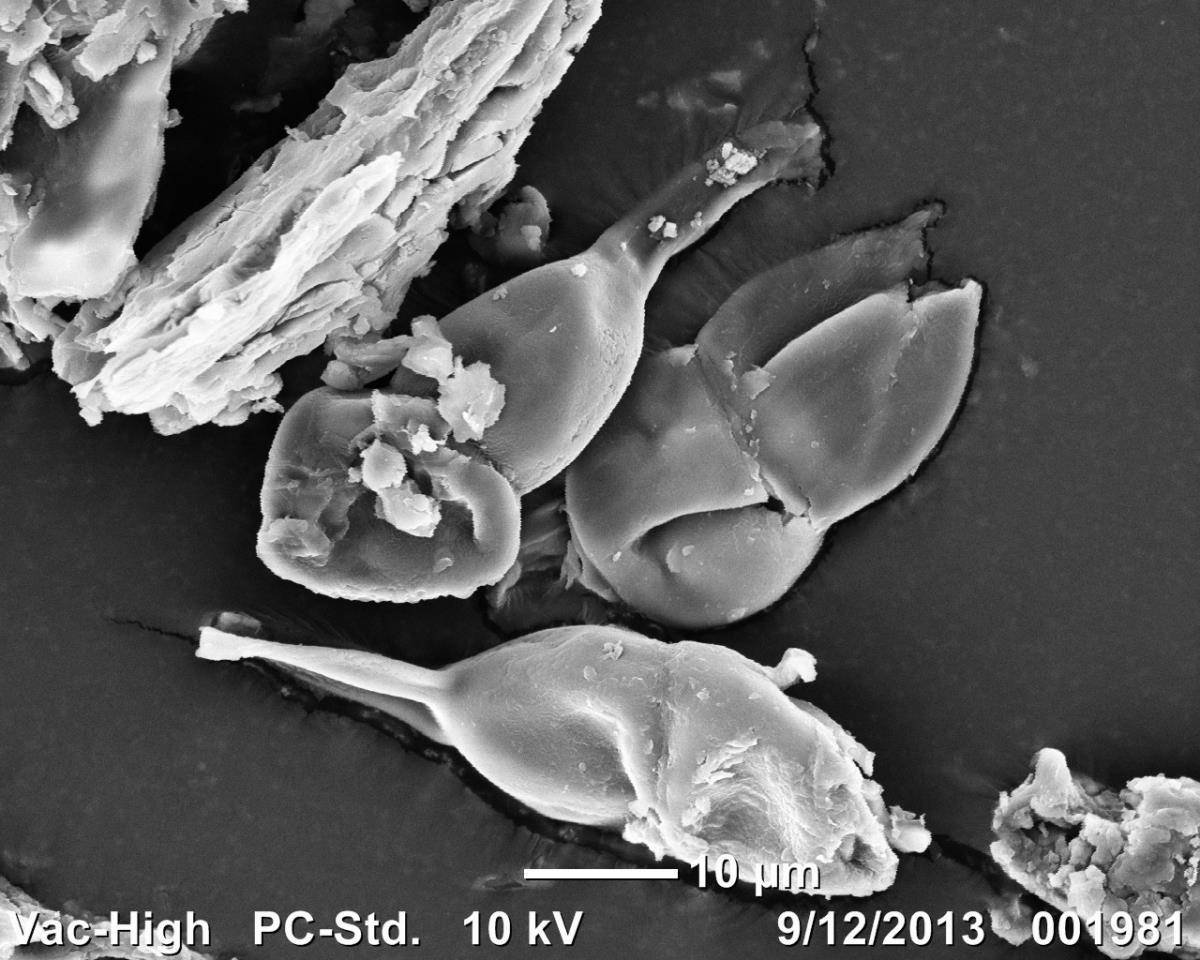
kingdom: Fungi
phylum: Basidiomycota
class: Pucciniomycetes
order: Pucciniales
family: Pucciniaceae
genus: Puccinia
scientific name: Puccinia coprosmae
